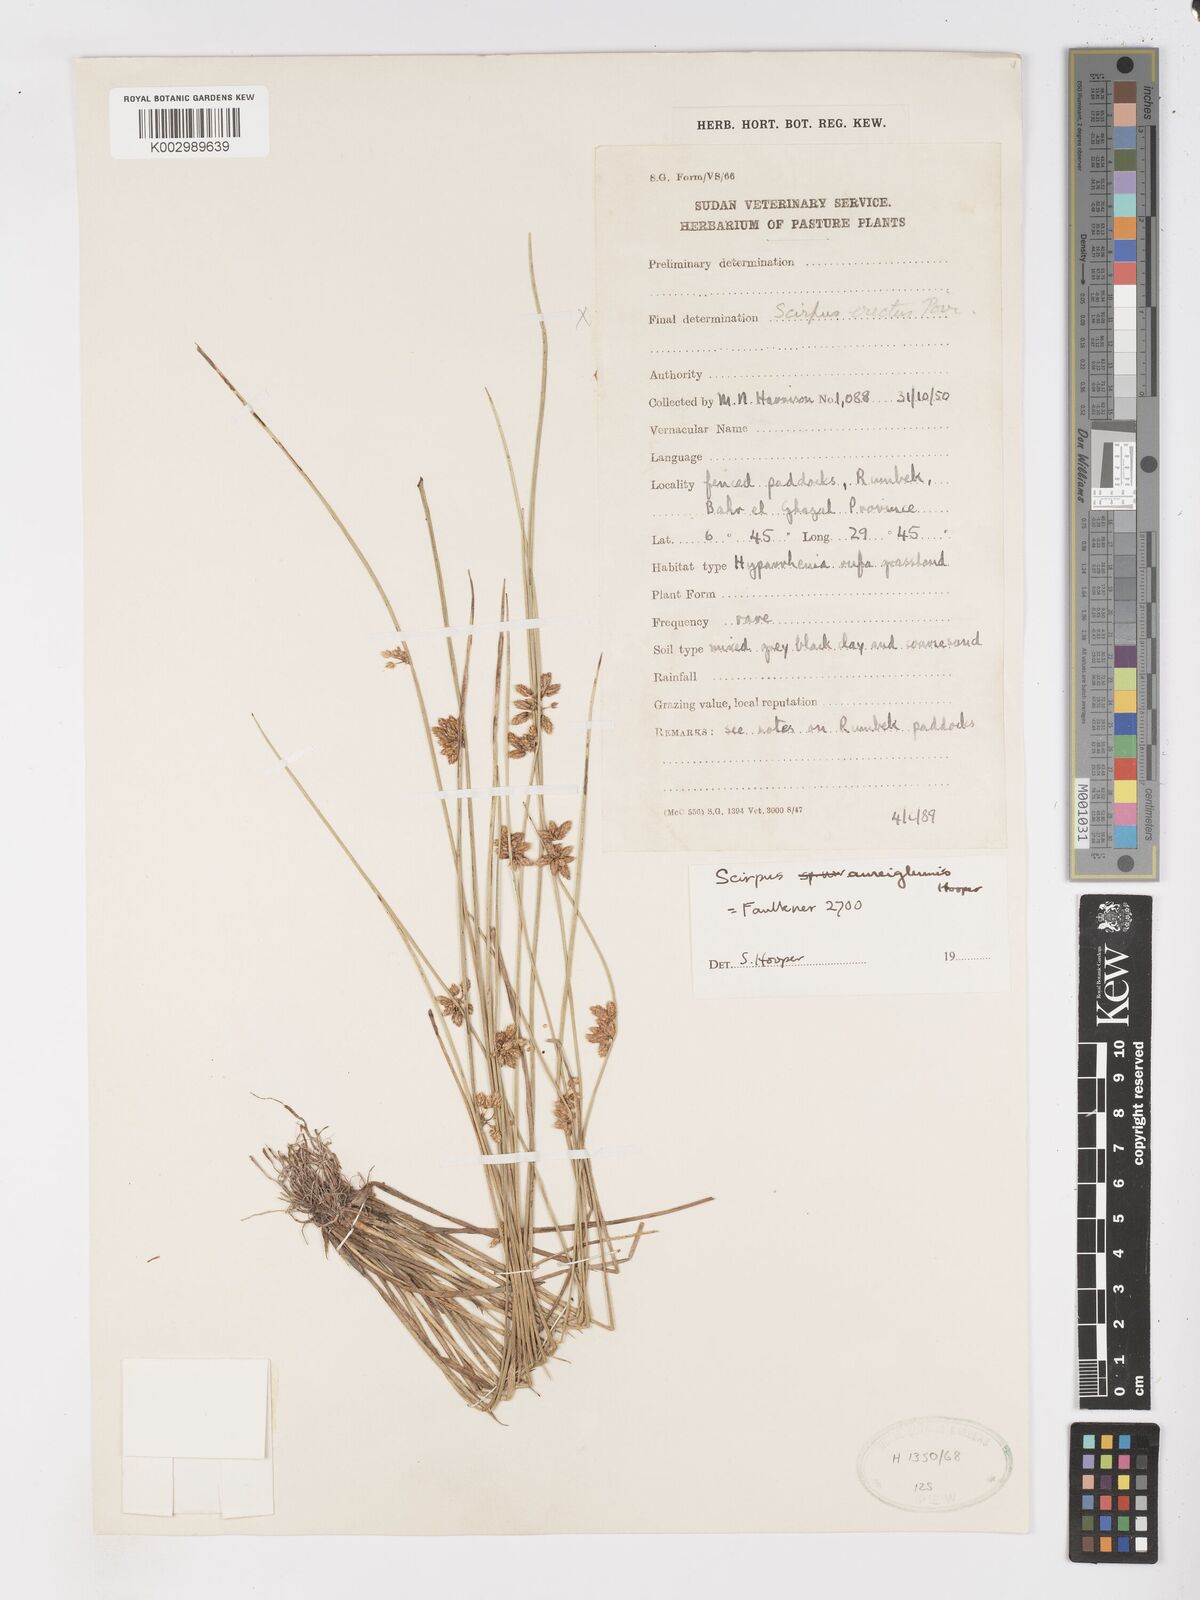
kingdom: Plantae
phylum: Tracheophyta
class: Liliopsida
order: Poales
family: Cyperaceae
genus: Schoenoplectiella
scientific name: Schoenoplectiella juncea
